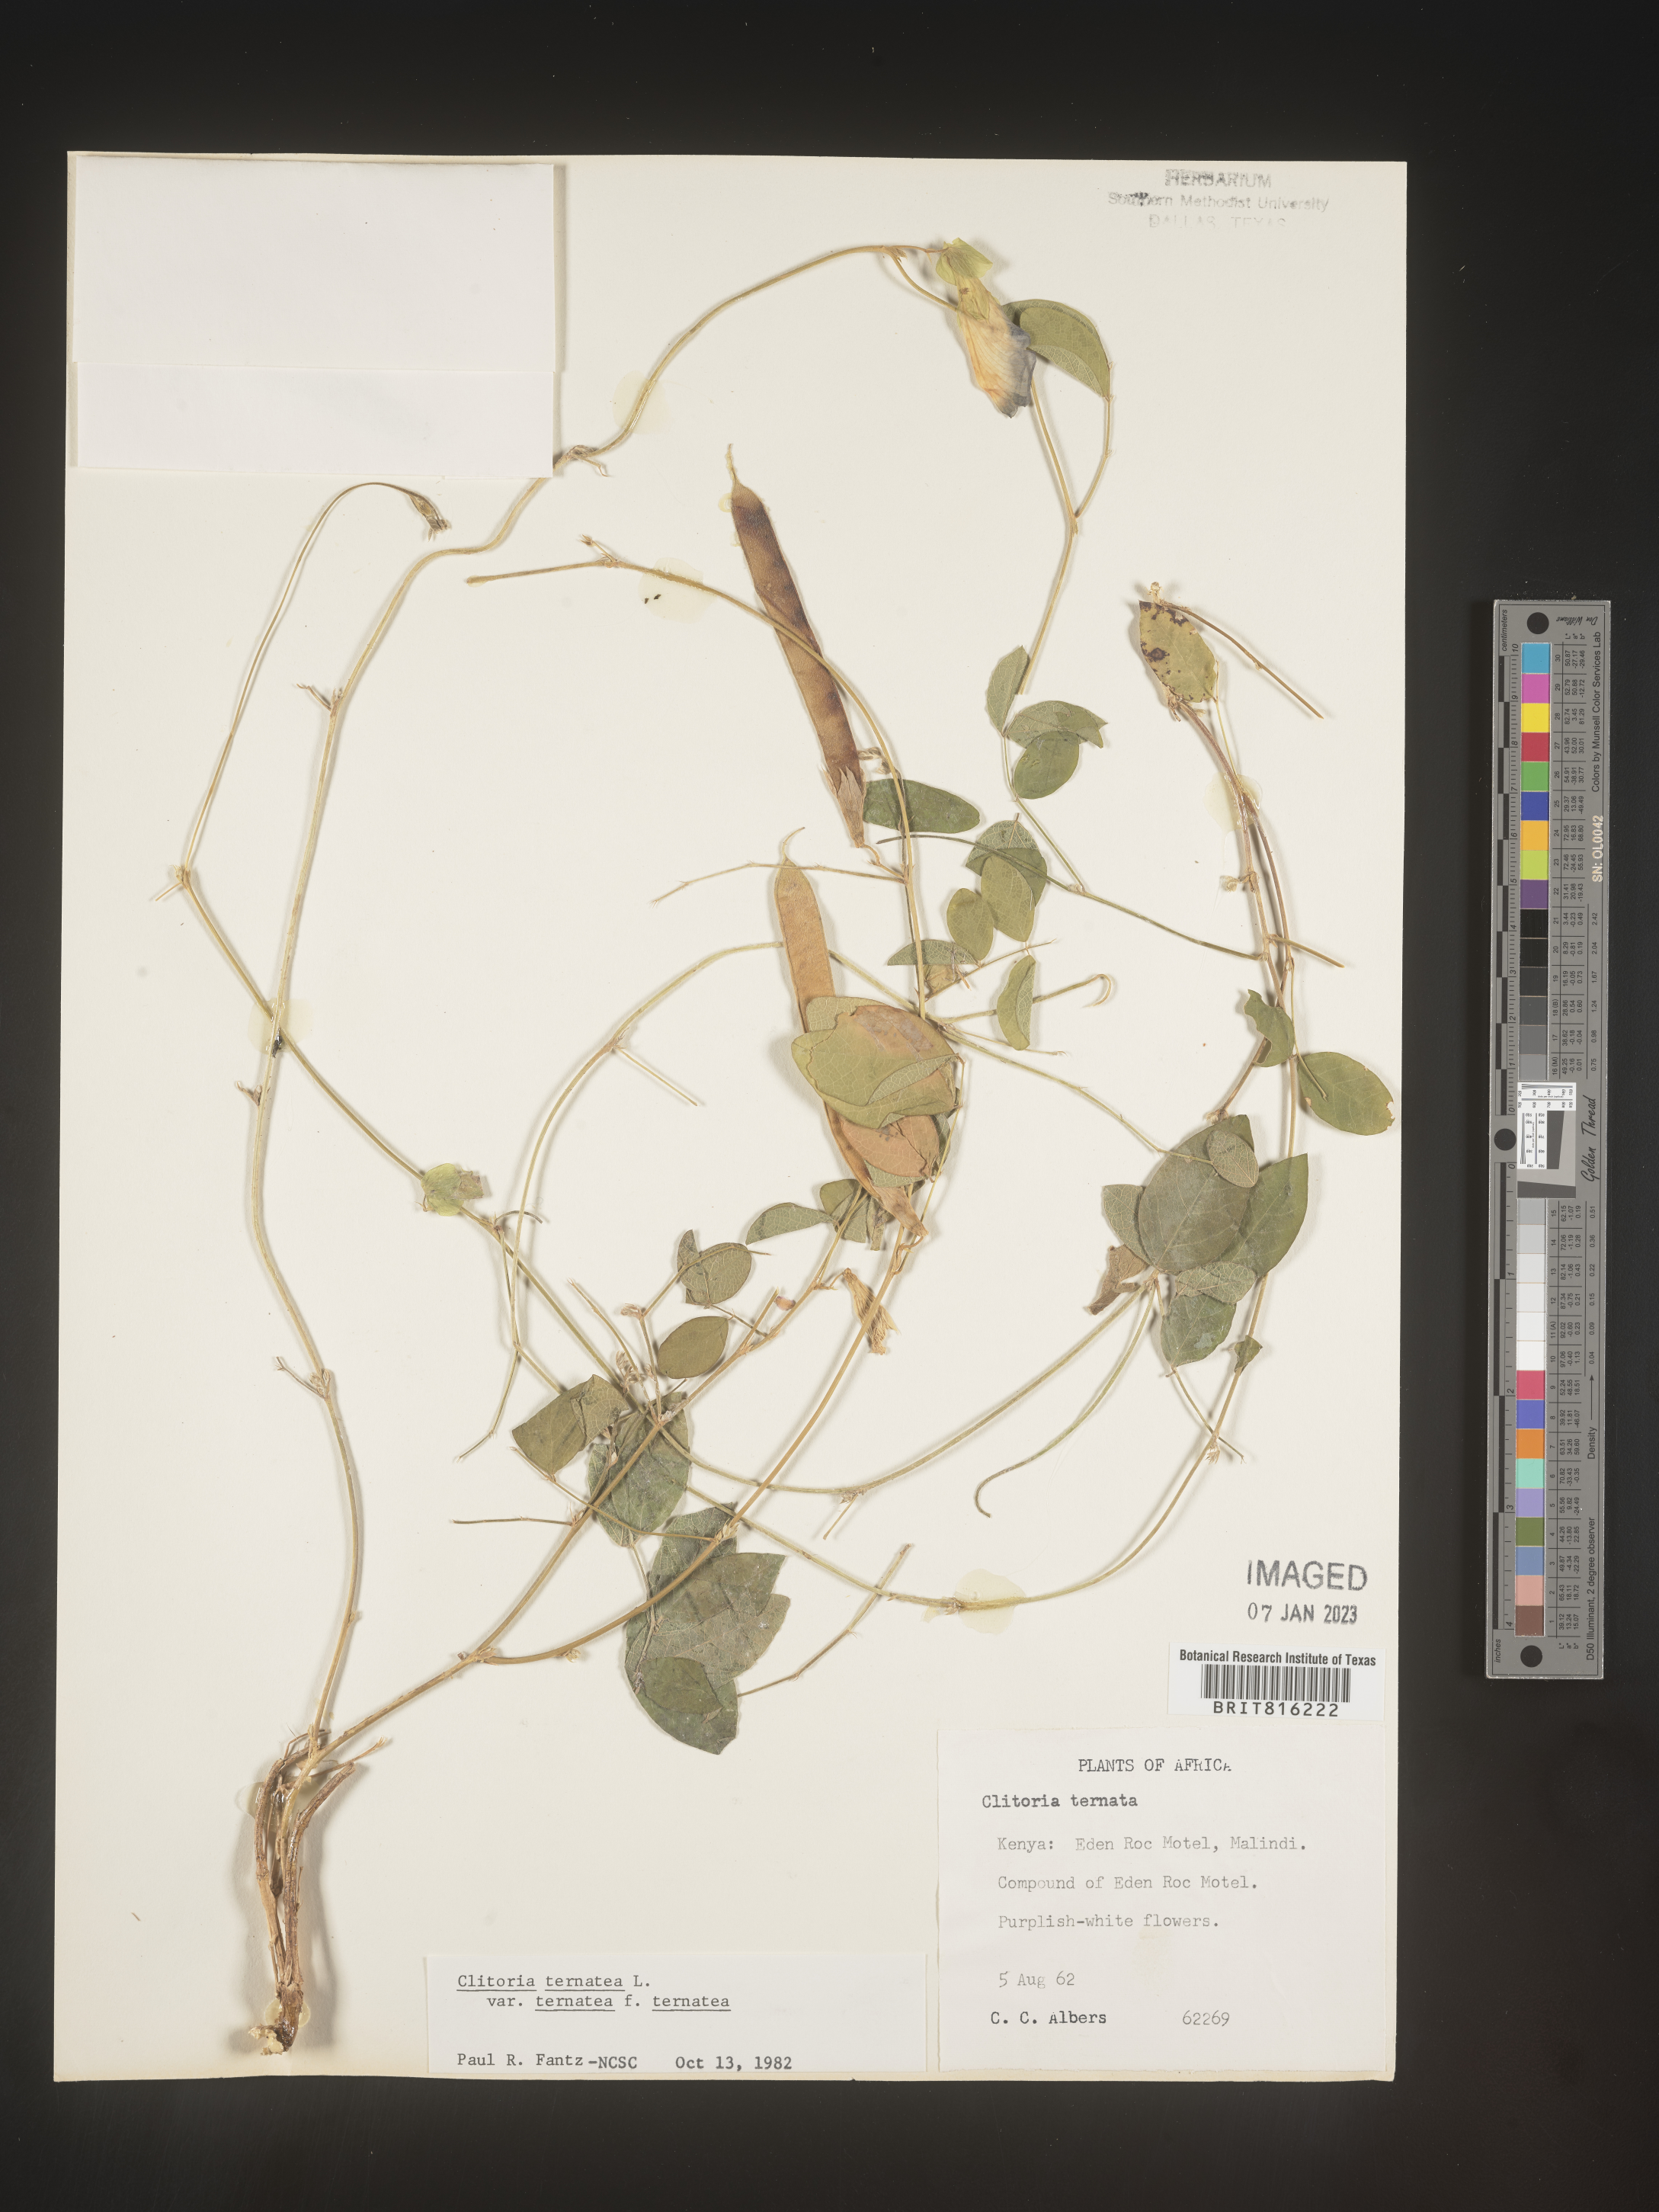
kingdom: Plantae
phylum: Tracheophyta
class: Magnoliopsida
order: Fabales
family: Fabaceae
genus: Clitoria
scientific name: Clitoria
